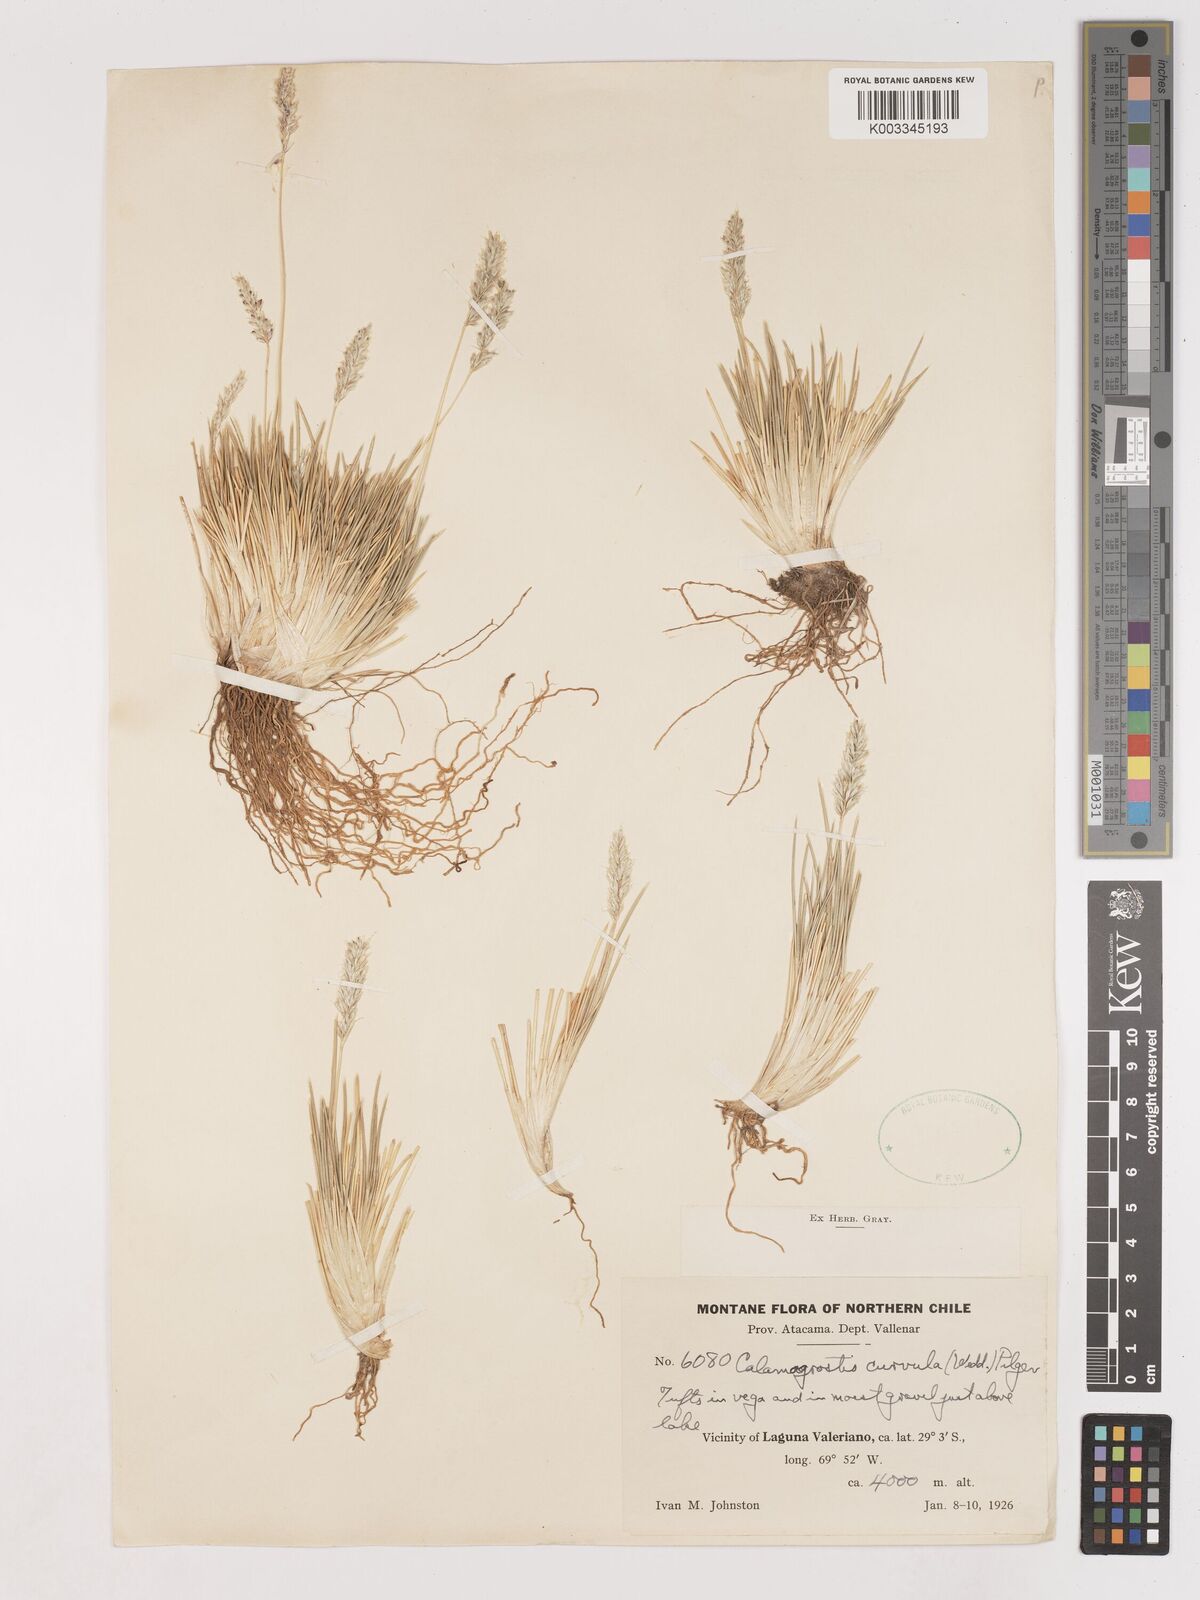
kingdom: Plantae
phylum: Tracheophyta
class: Liliopsida
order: Poales
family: Poaceae
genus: Cinnagrostis
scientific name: Cinnagrostis curvula
